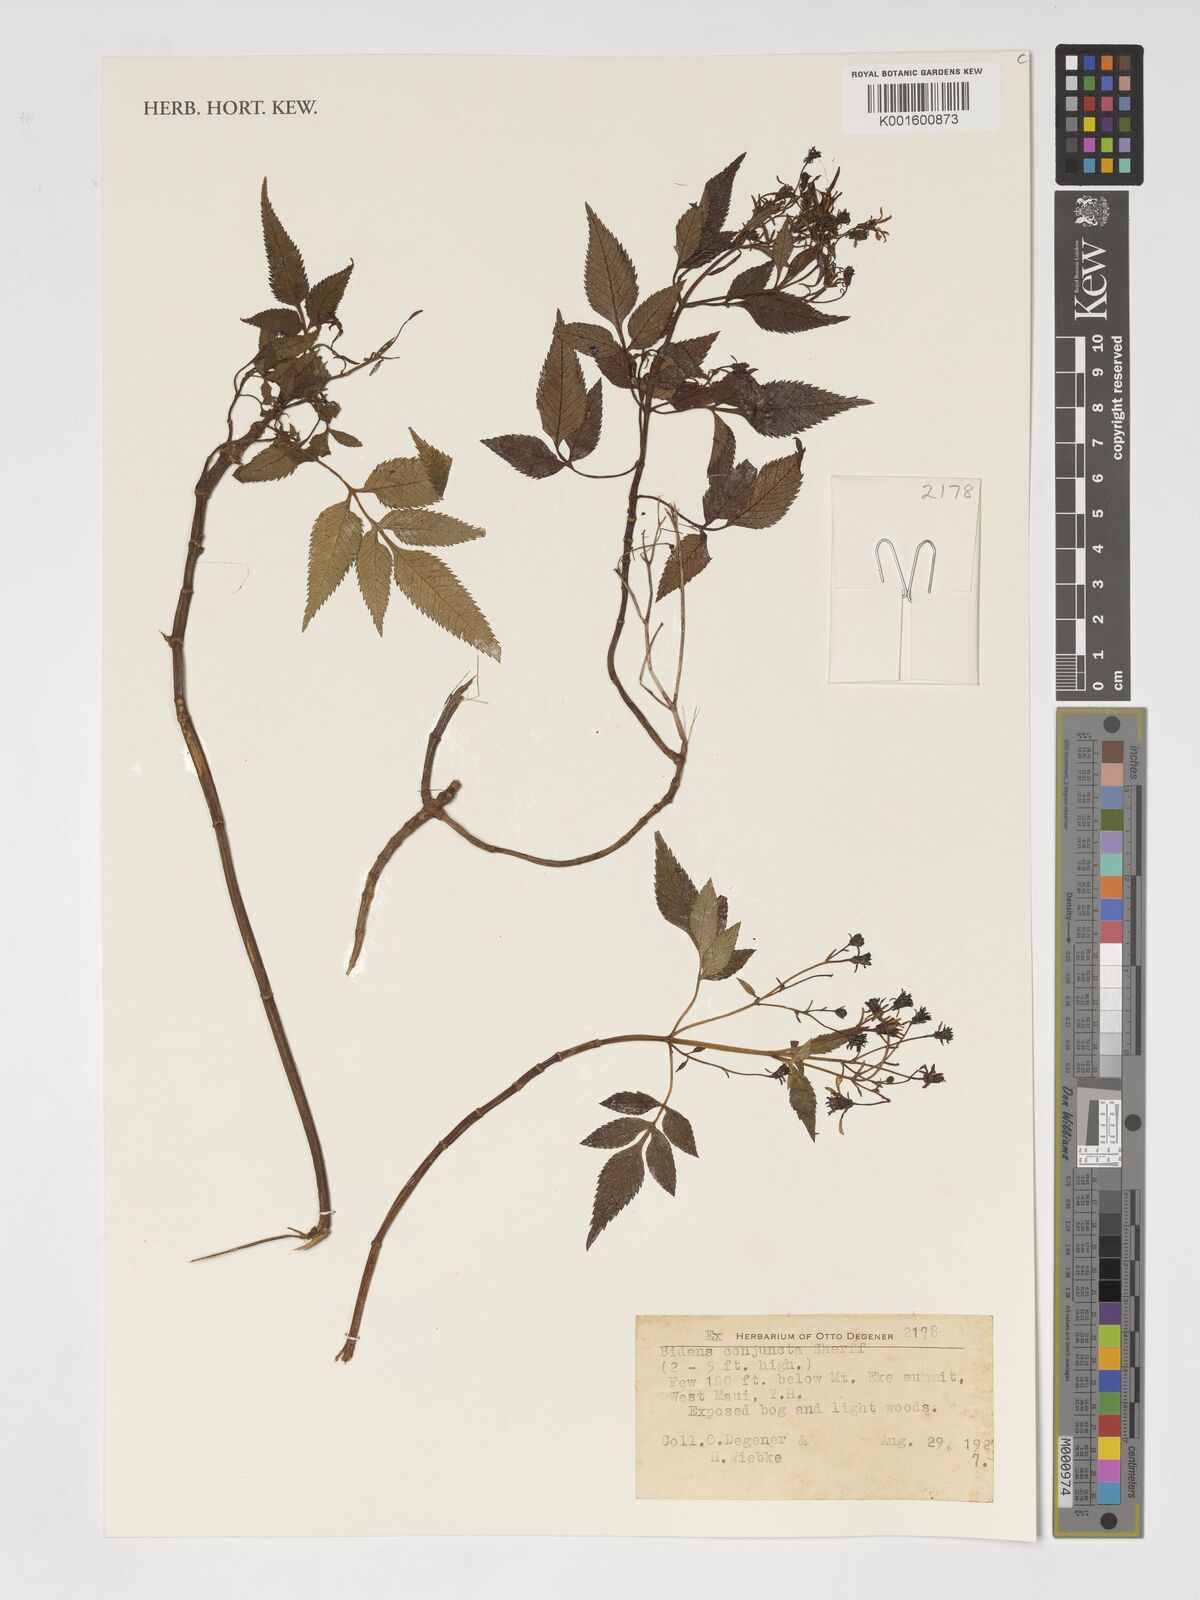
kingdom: Plantae
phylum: Tracheophyta
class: Magnoliopsida
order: Asterales
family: Asteraceae
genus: Bidens
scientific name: Bidens conjuncta
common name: Koko'olau
